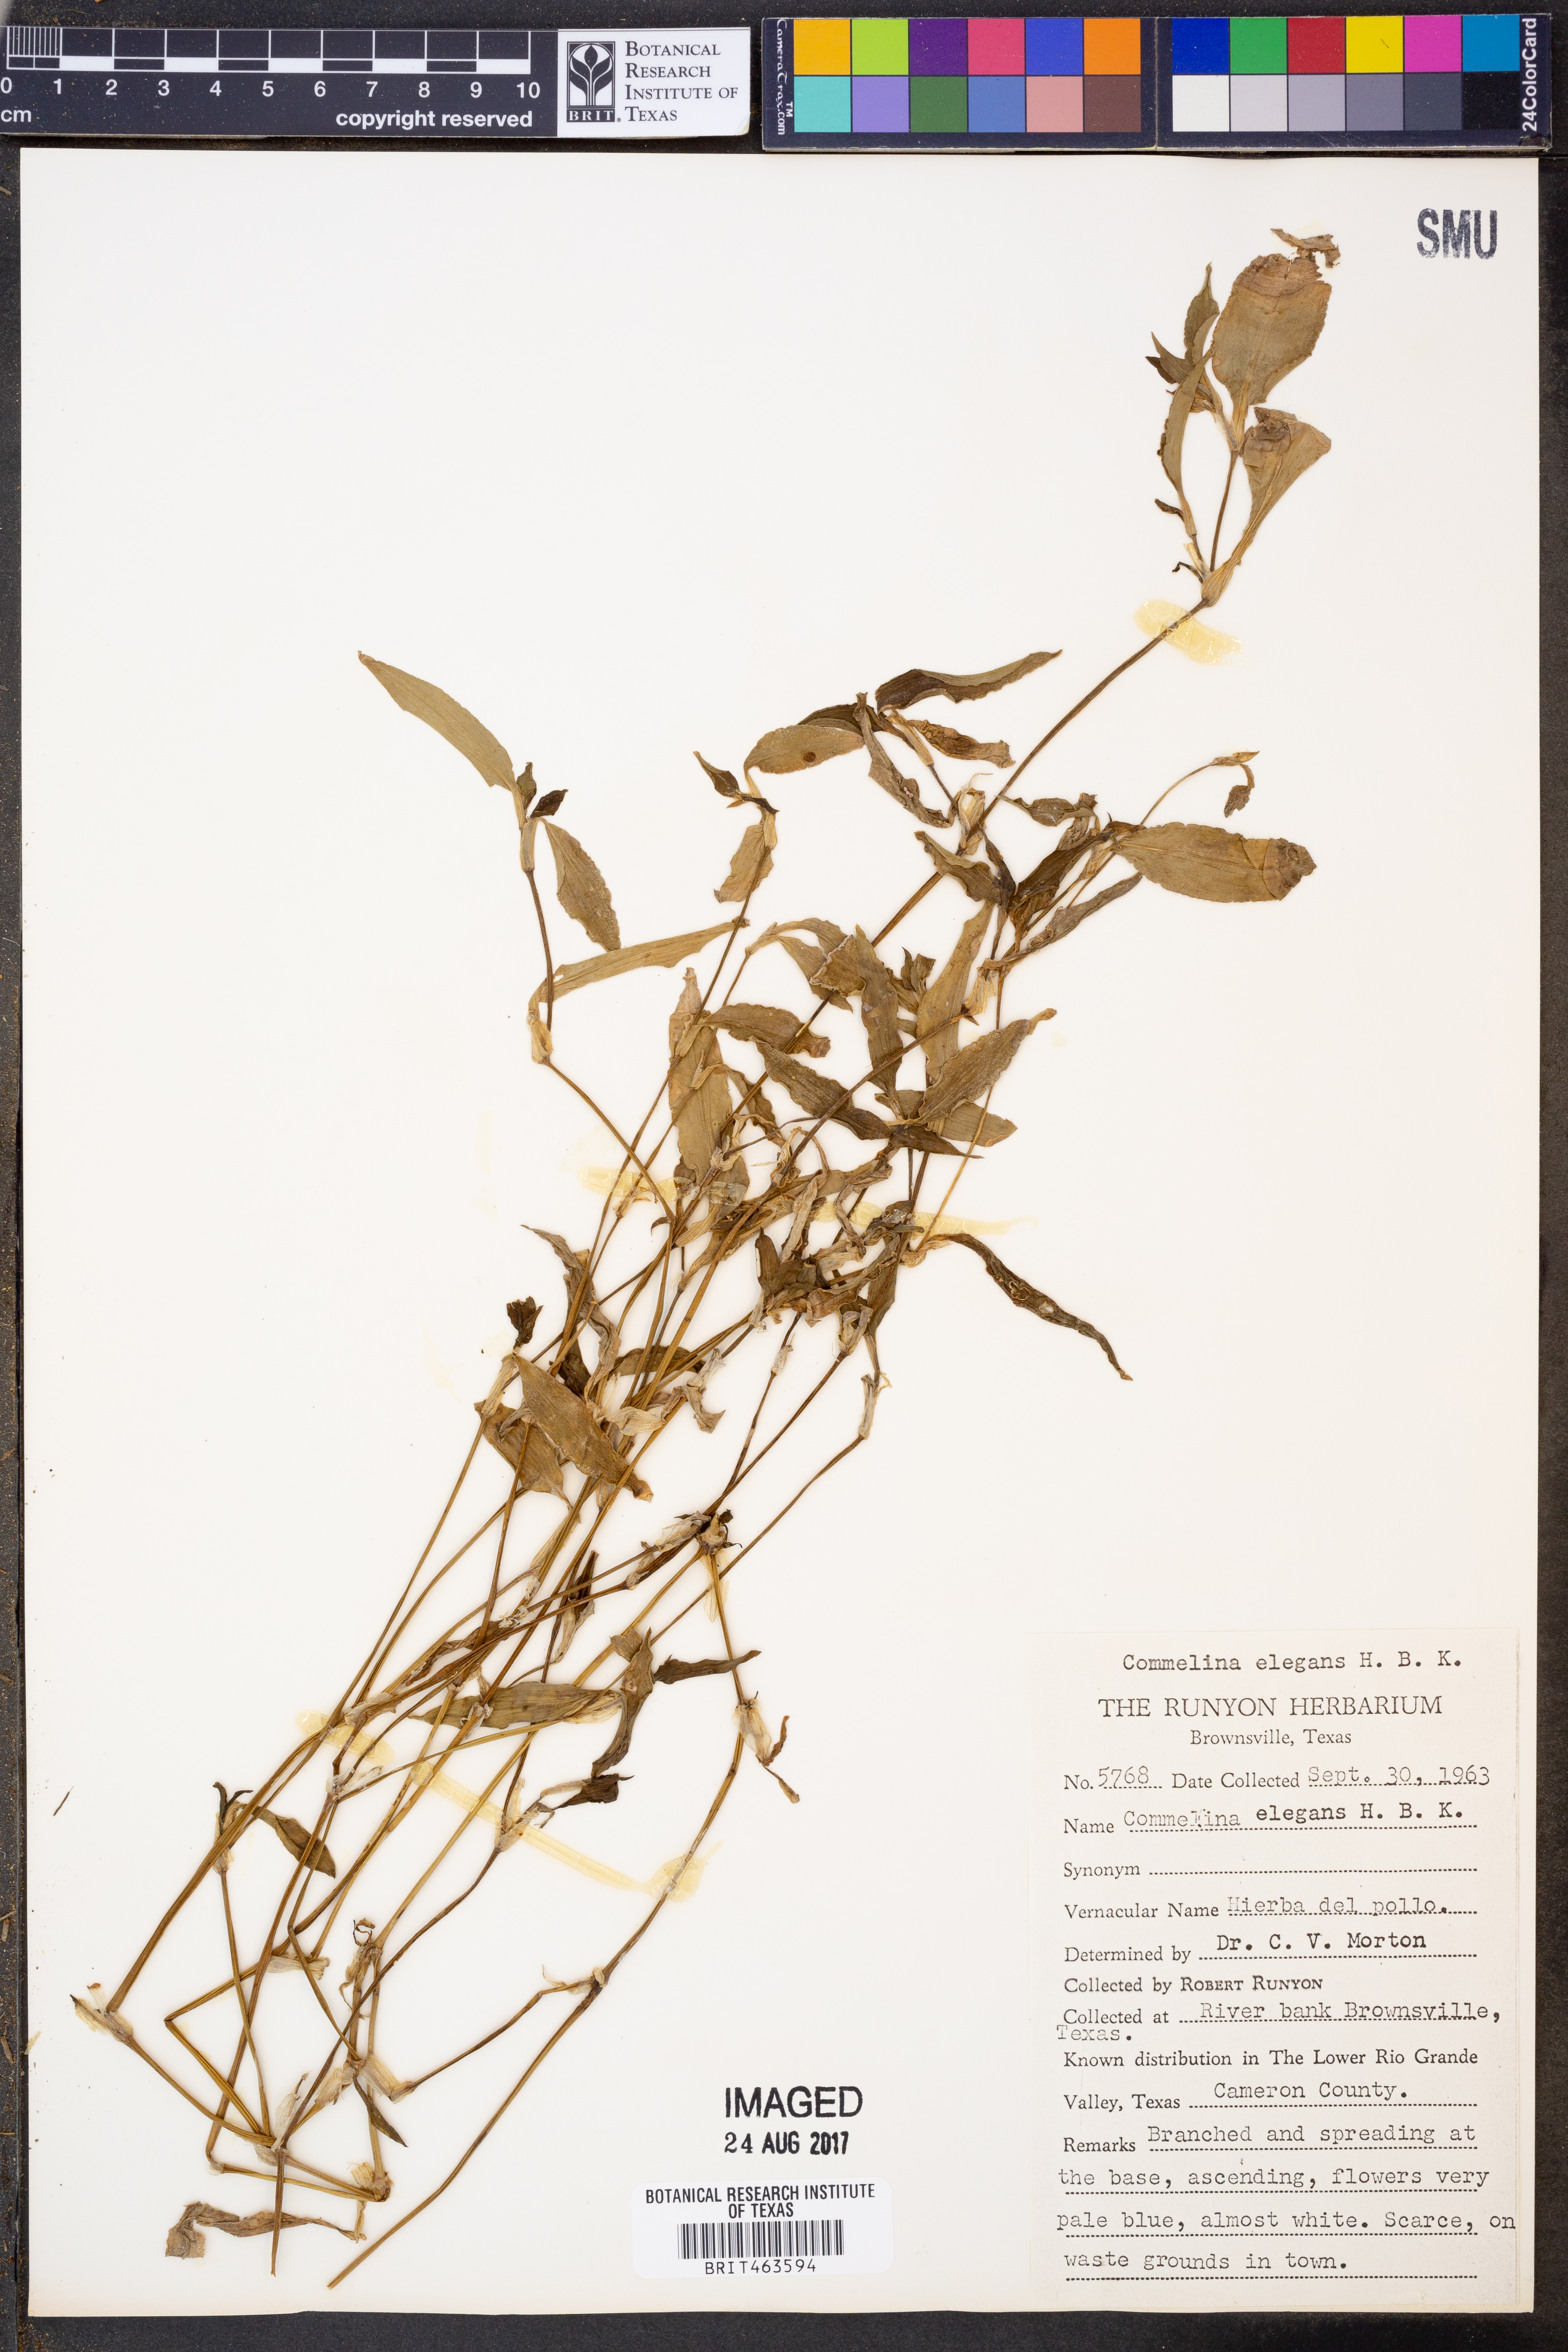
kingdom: Plantae
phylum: Tracheophyta
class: Liliopsida
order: Commelinales
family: Commelinaceae
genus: Commelina
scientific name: Commelina erecta
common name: Blousel blommetjie
